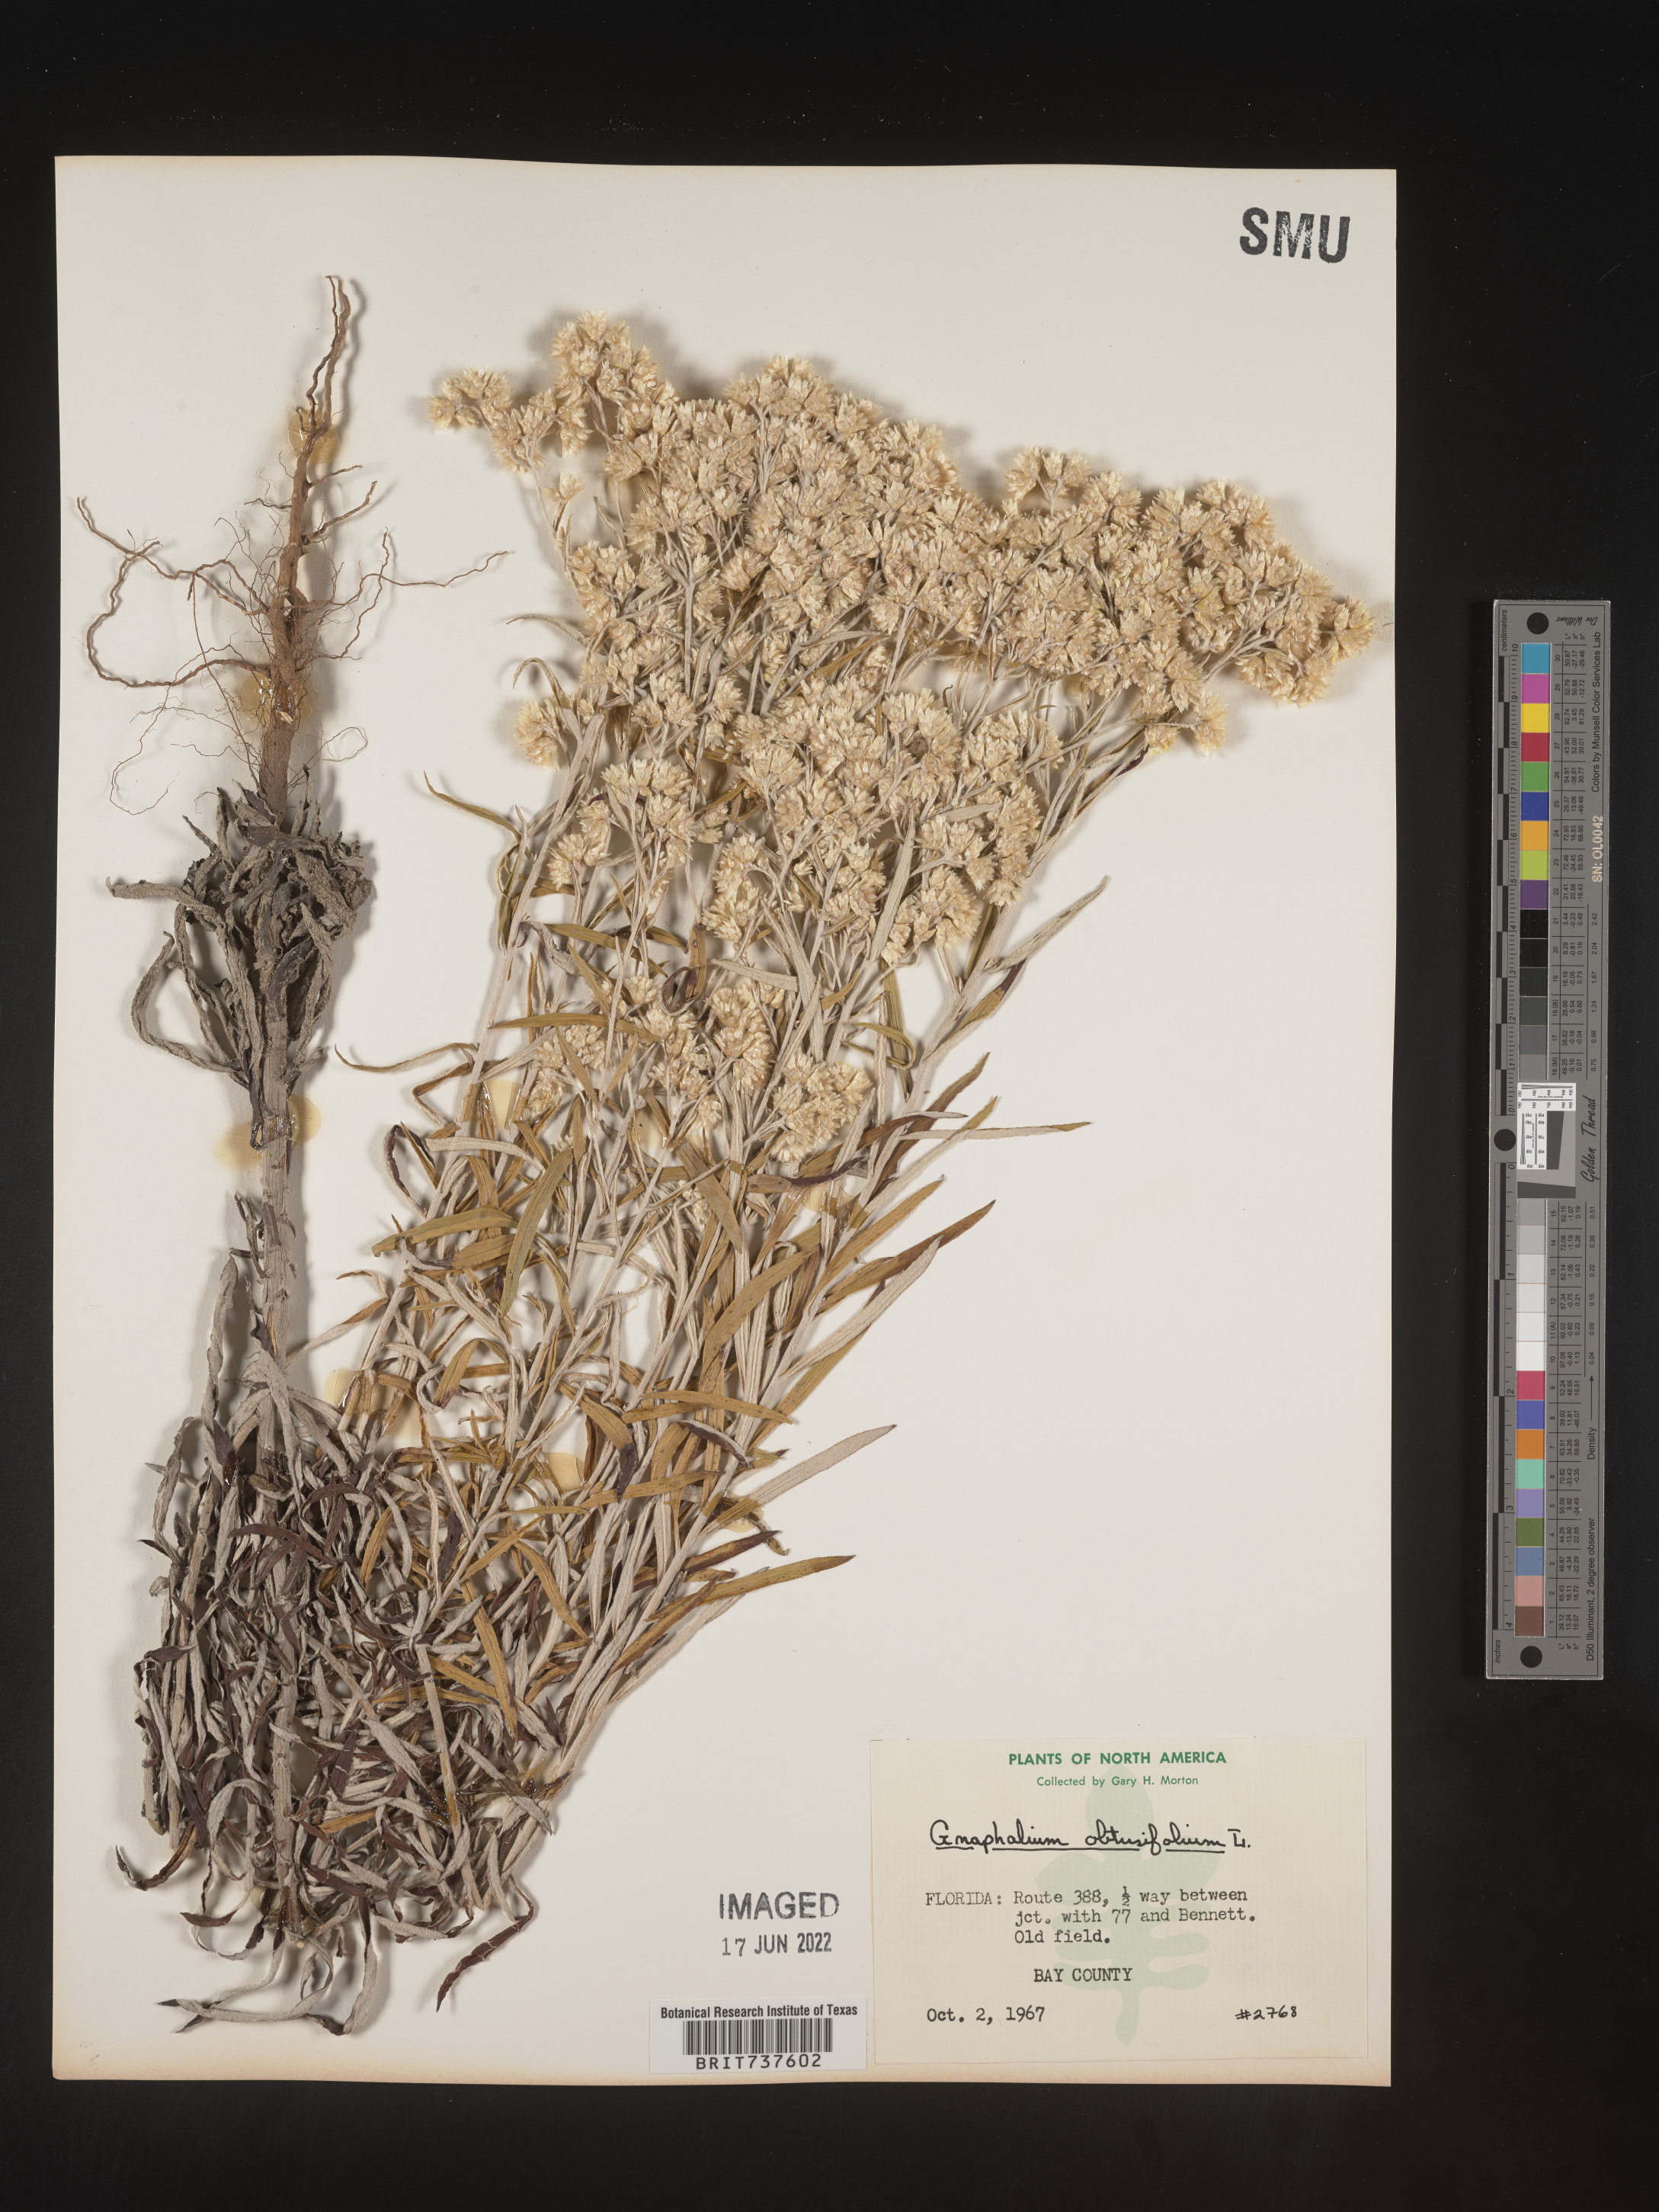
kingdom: Plantae
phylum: Tracheophyta
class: Magnoliopsida
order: Asterales
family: Asteraceae
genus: Pseudognaphalium
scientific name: Pseudognaphalium obtusifolium
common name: Eastern rabbit-tobacco
